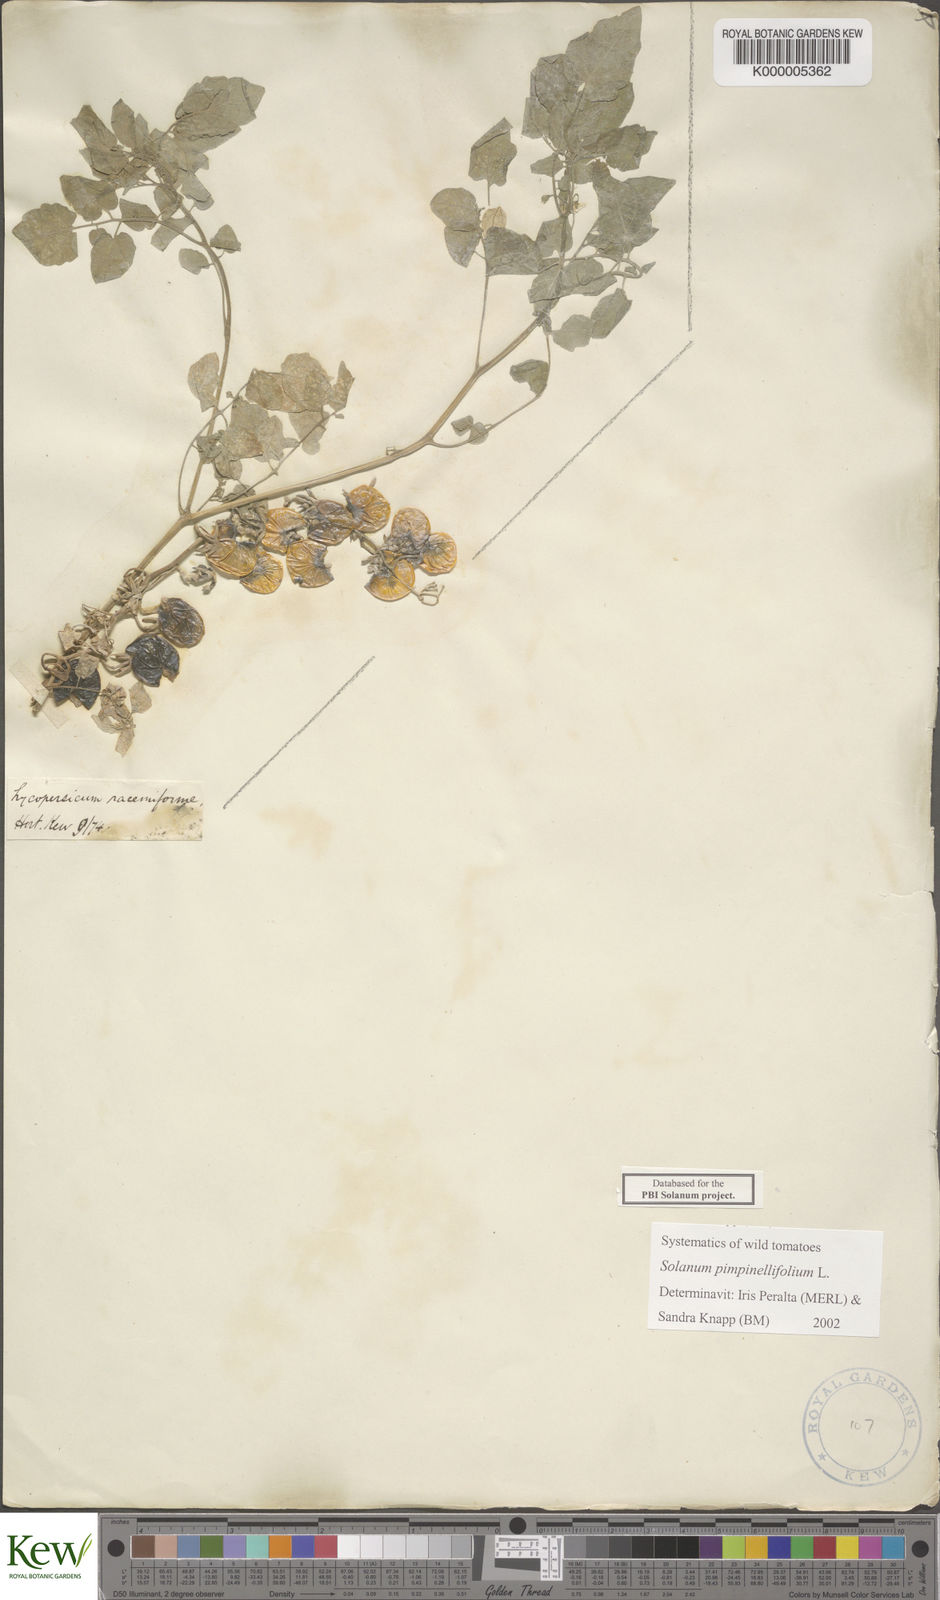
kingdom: Plantae
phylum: Tracheophyta
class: Magnoliopsida
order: Solanales
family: Solanaceae
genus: Solanum
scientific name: Solanum pimpinellifolium
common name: Currant-tomato
